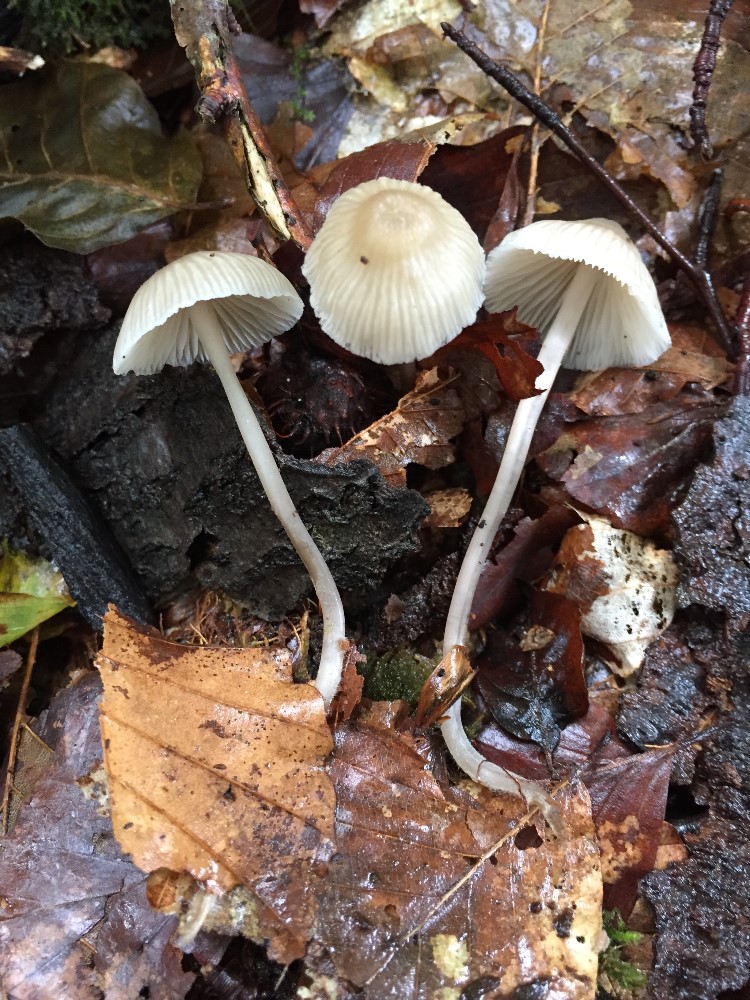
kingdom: Fungi
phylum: Basidiomycota
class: Agaricomycetes
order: Agaricales
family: Mycenaceae
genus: Mycena
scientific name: Mycena fagetorum
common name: bøgeløv-huesvamp
